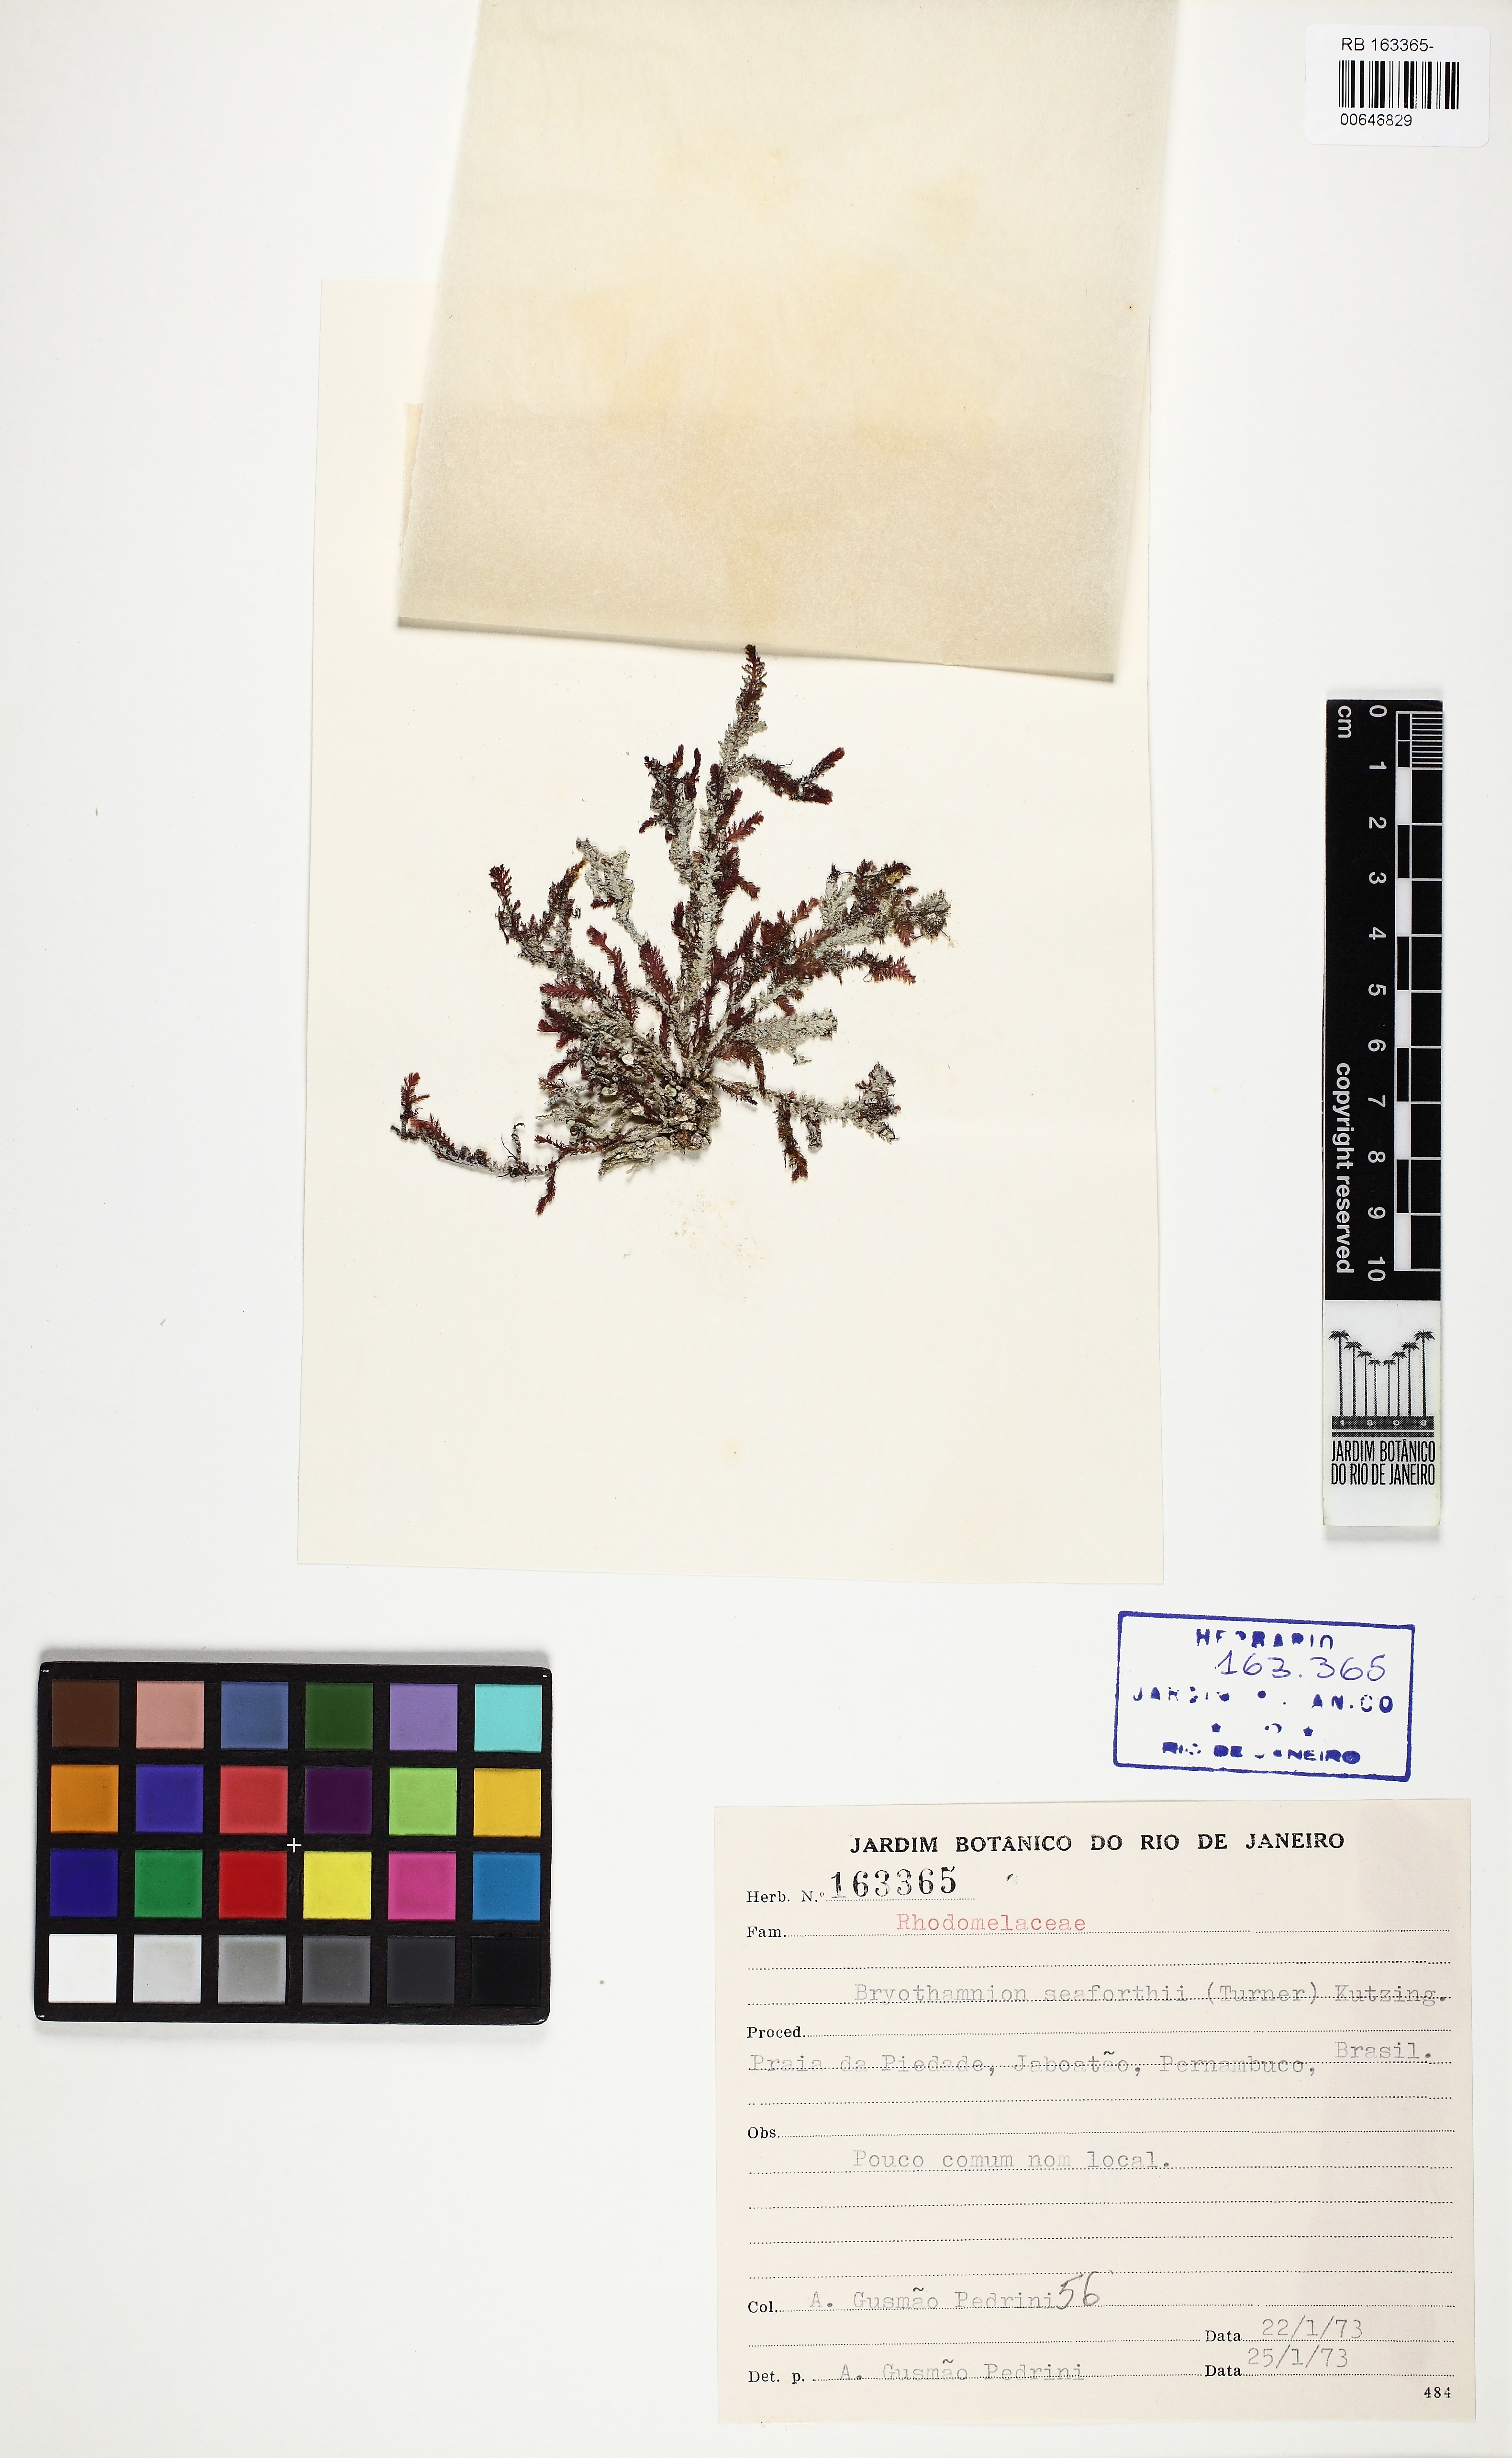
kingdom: Plantae
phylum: Rhodophyta
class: Florideophyceae
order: Ceramiales
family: Rhodomelaceae
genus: Alsidium
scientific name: Alsidium seaforthii
